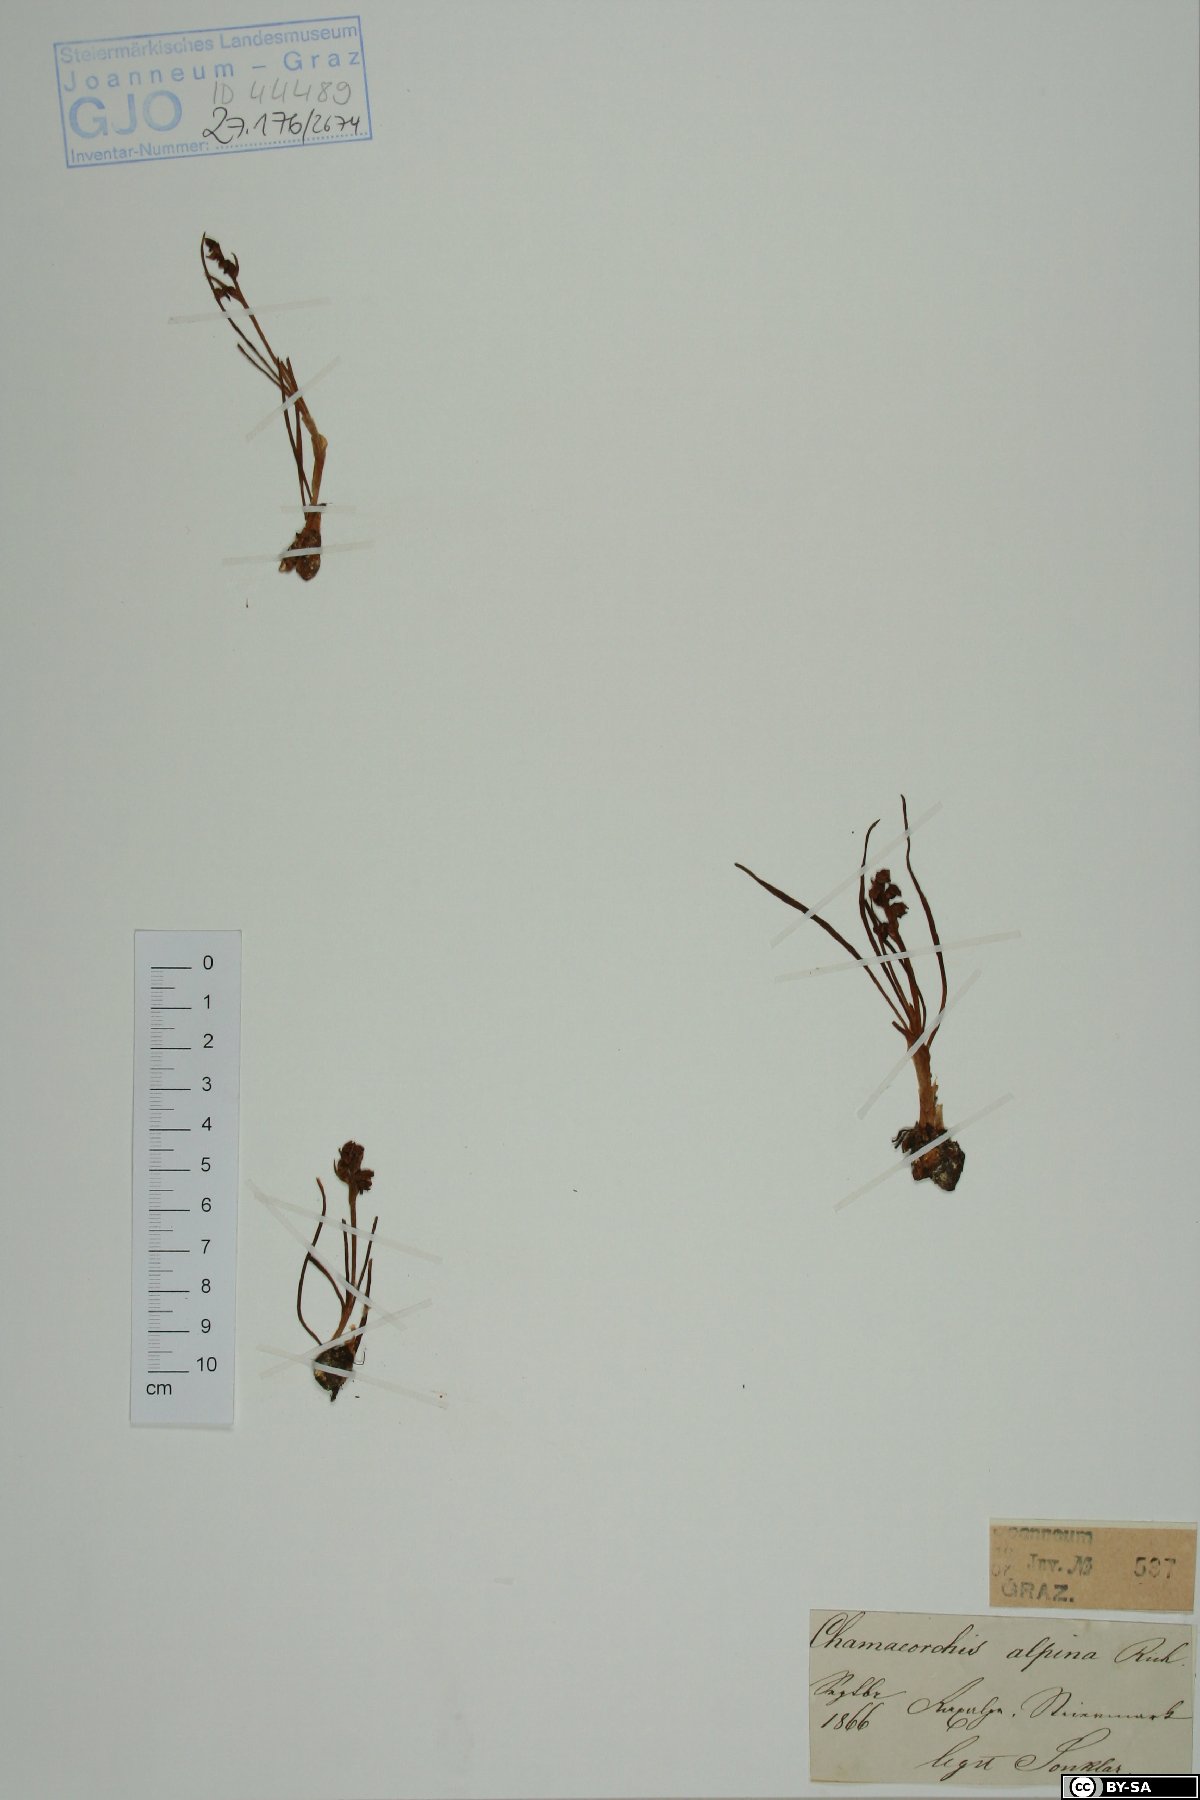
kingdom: Plantae
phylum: Tracheophyta
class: Liliopsida
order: Asparagales
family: Orchidaceae
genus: Chamorchis
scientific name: Chamorchis alpina
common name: Alpine chamorchis
